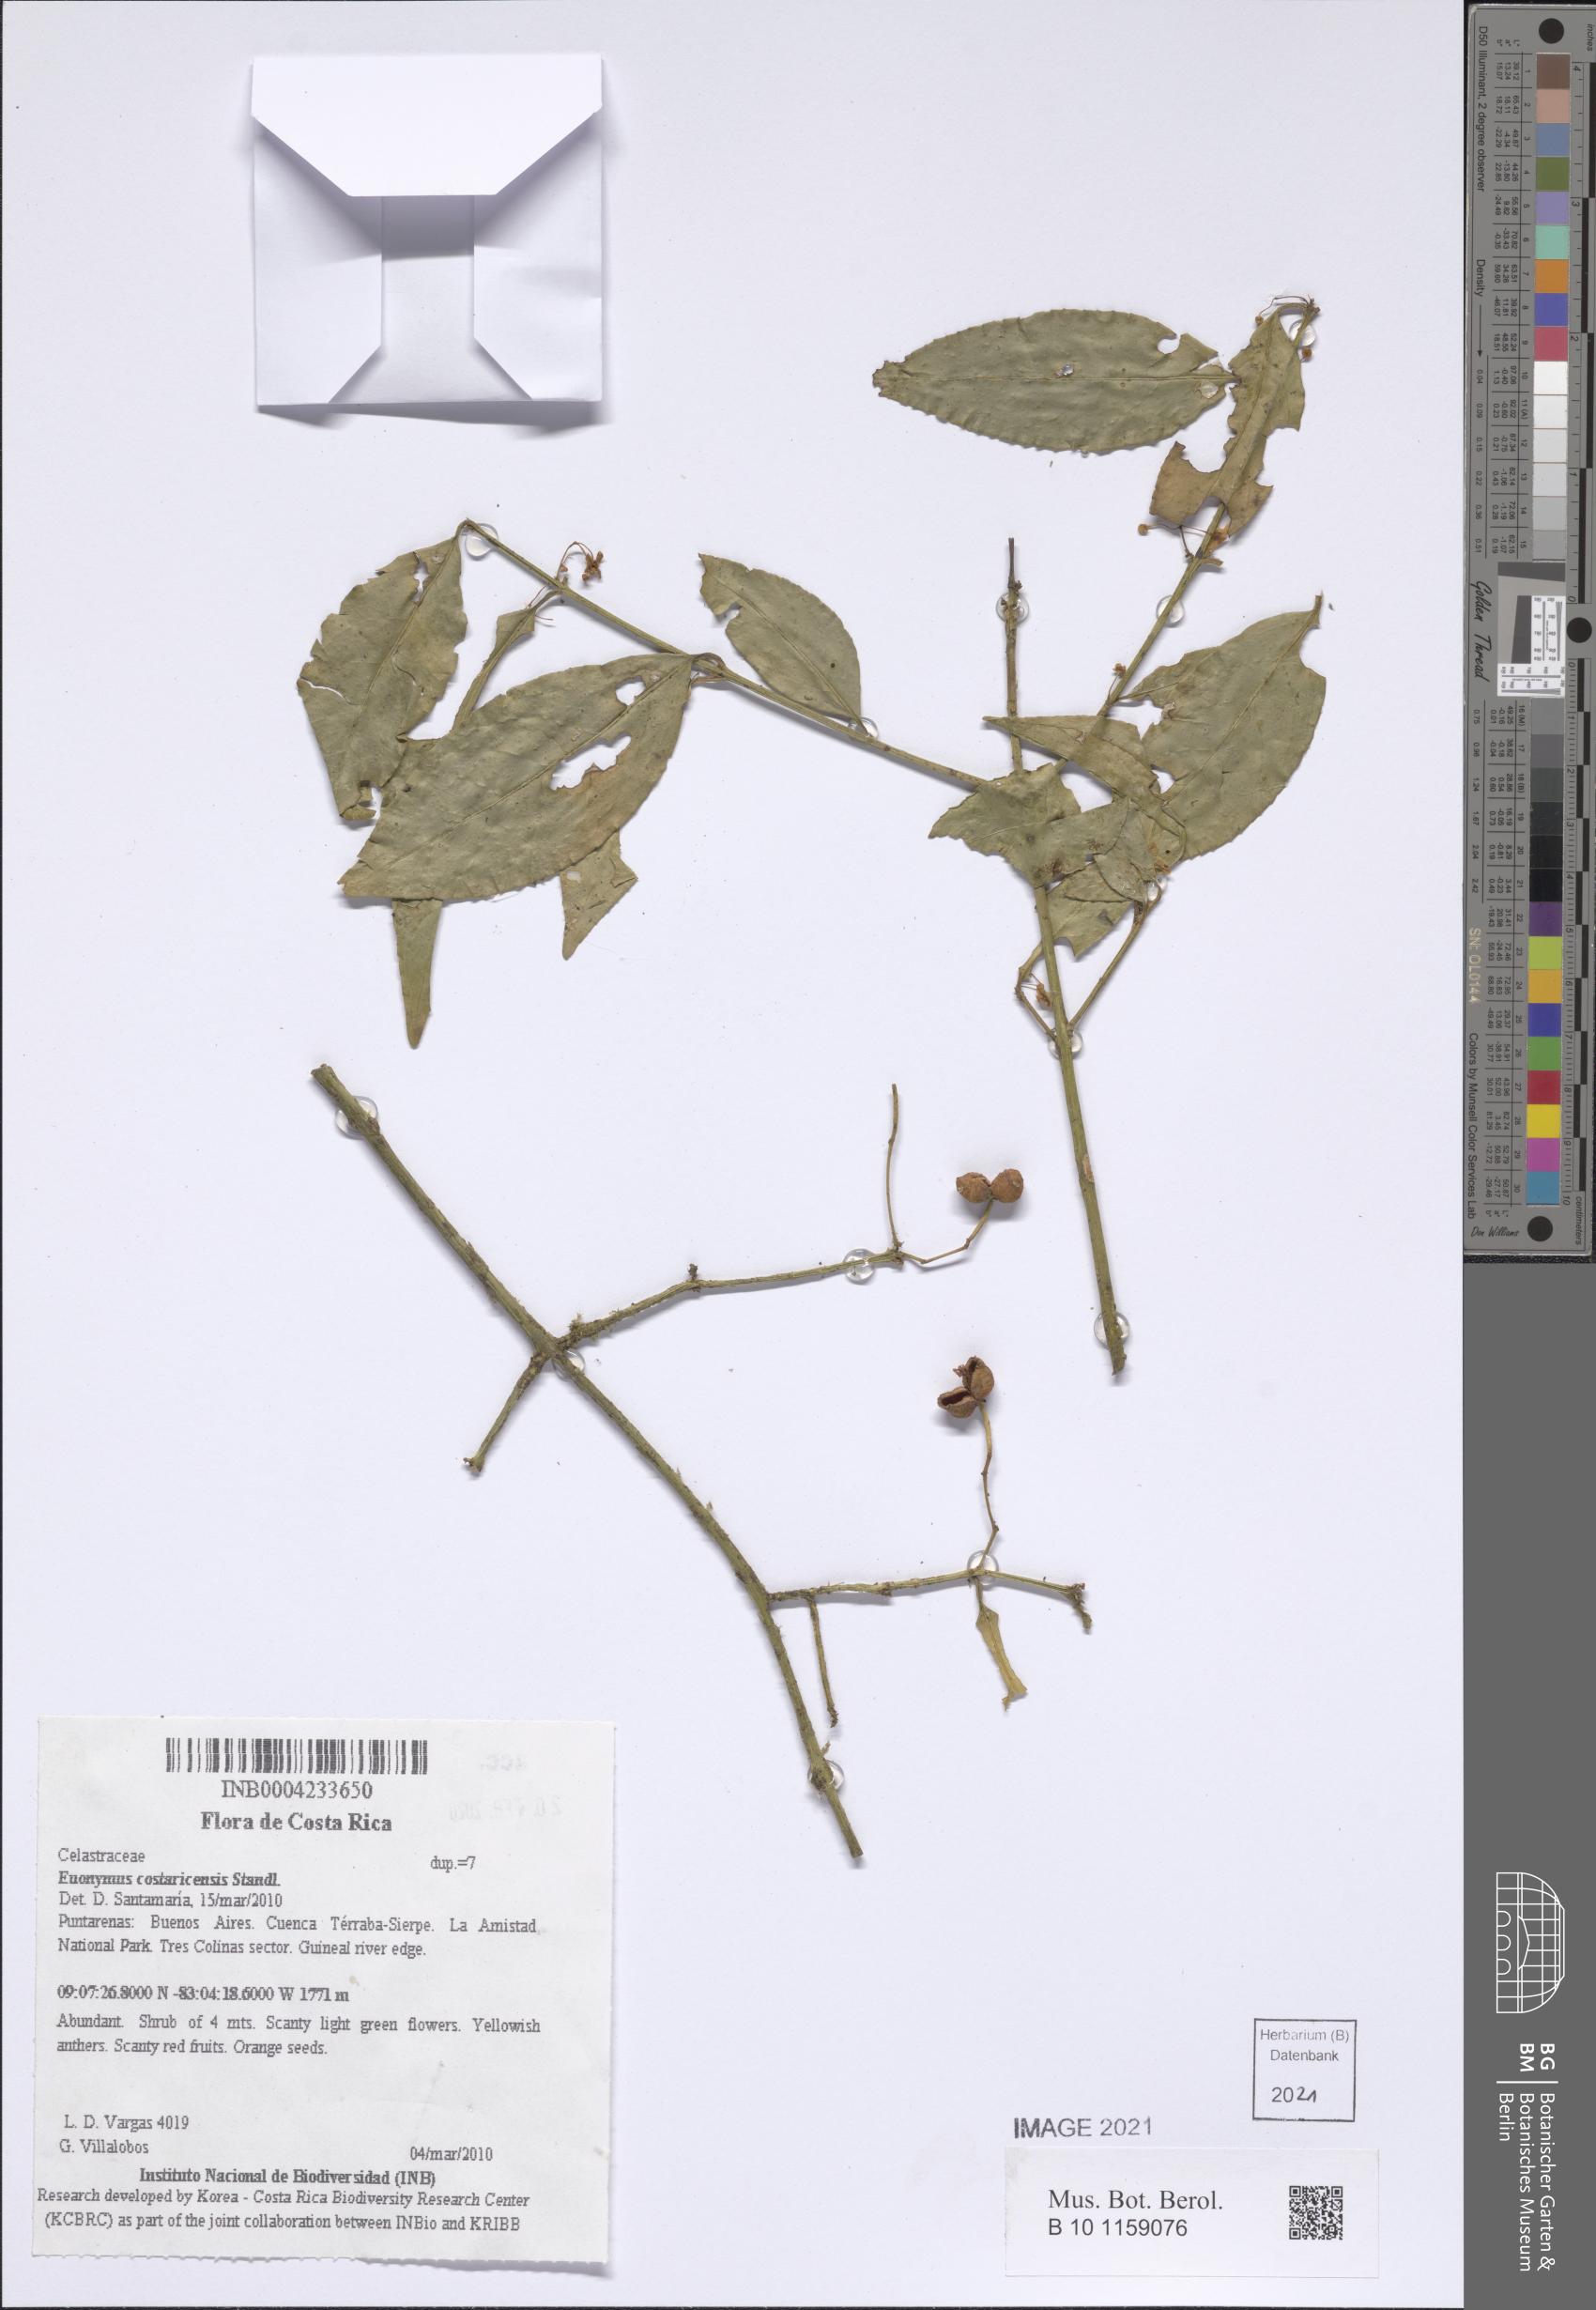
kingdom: Plantae
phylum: Tracheophyta
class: Magnoliopsida
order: Celastrales
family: Celastraceae
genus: Euonymus
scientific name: Euonymus costaricensis
